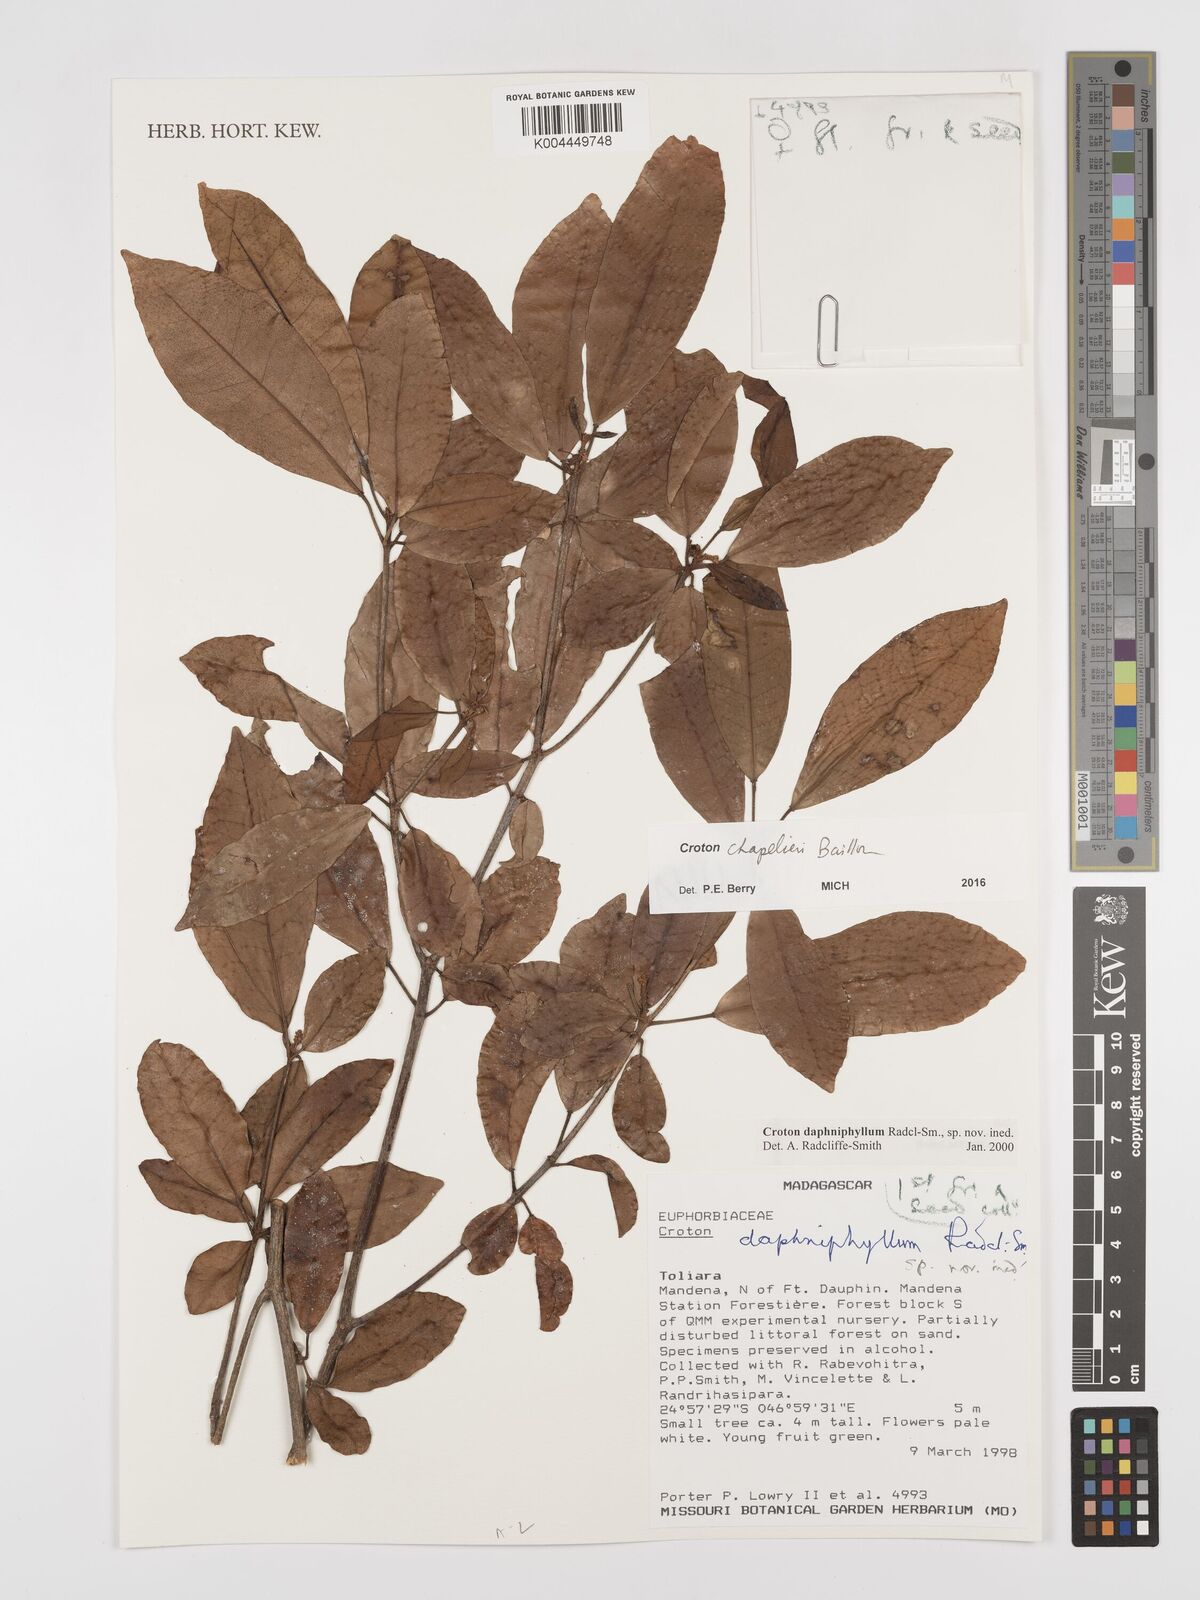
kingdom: Plantae
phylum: Tracheophyta
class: Magnoliopsida
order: Malpighiales
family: Euphorbiaceae
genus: Croton
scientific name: Croton chapelieri
